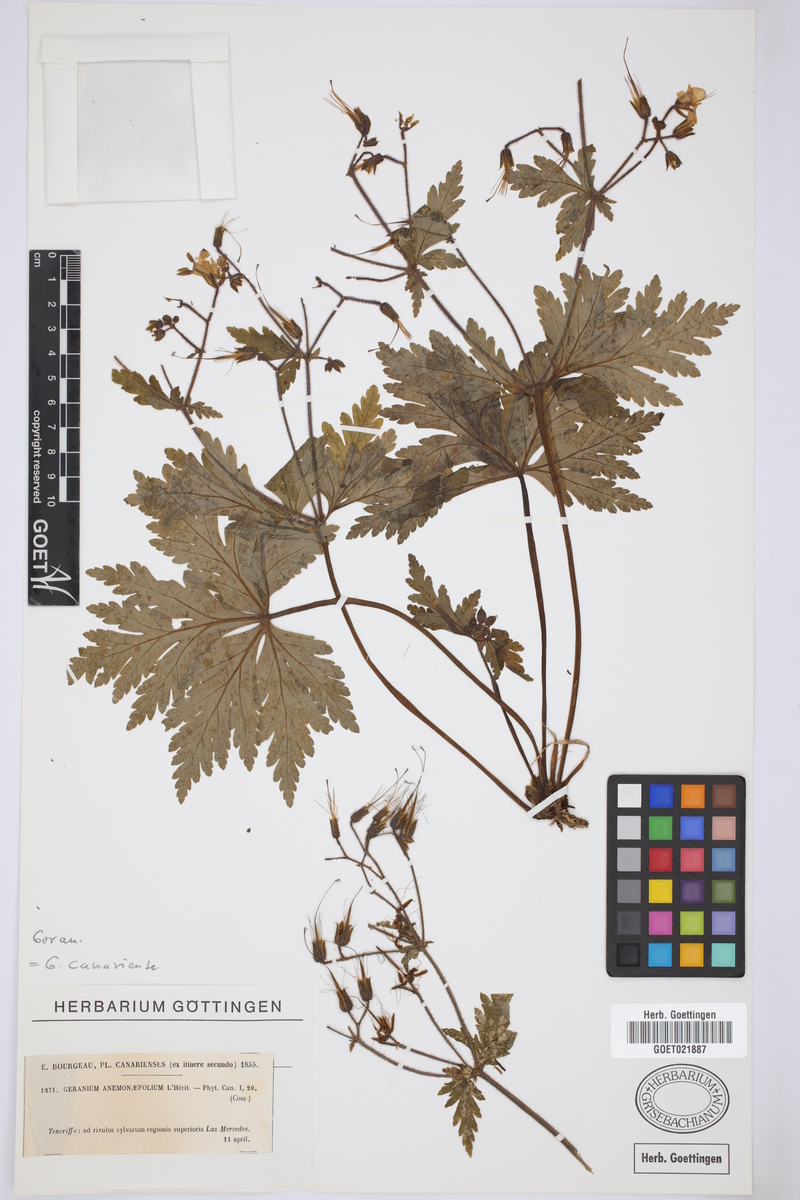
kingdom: Plantae
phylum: Tracheophyta
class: Magnoliopsida
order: Geraniales
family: Geraniaceae
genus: Geranium
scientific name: Geranium reuteri
